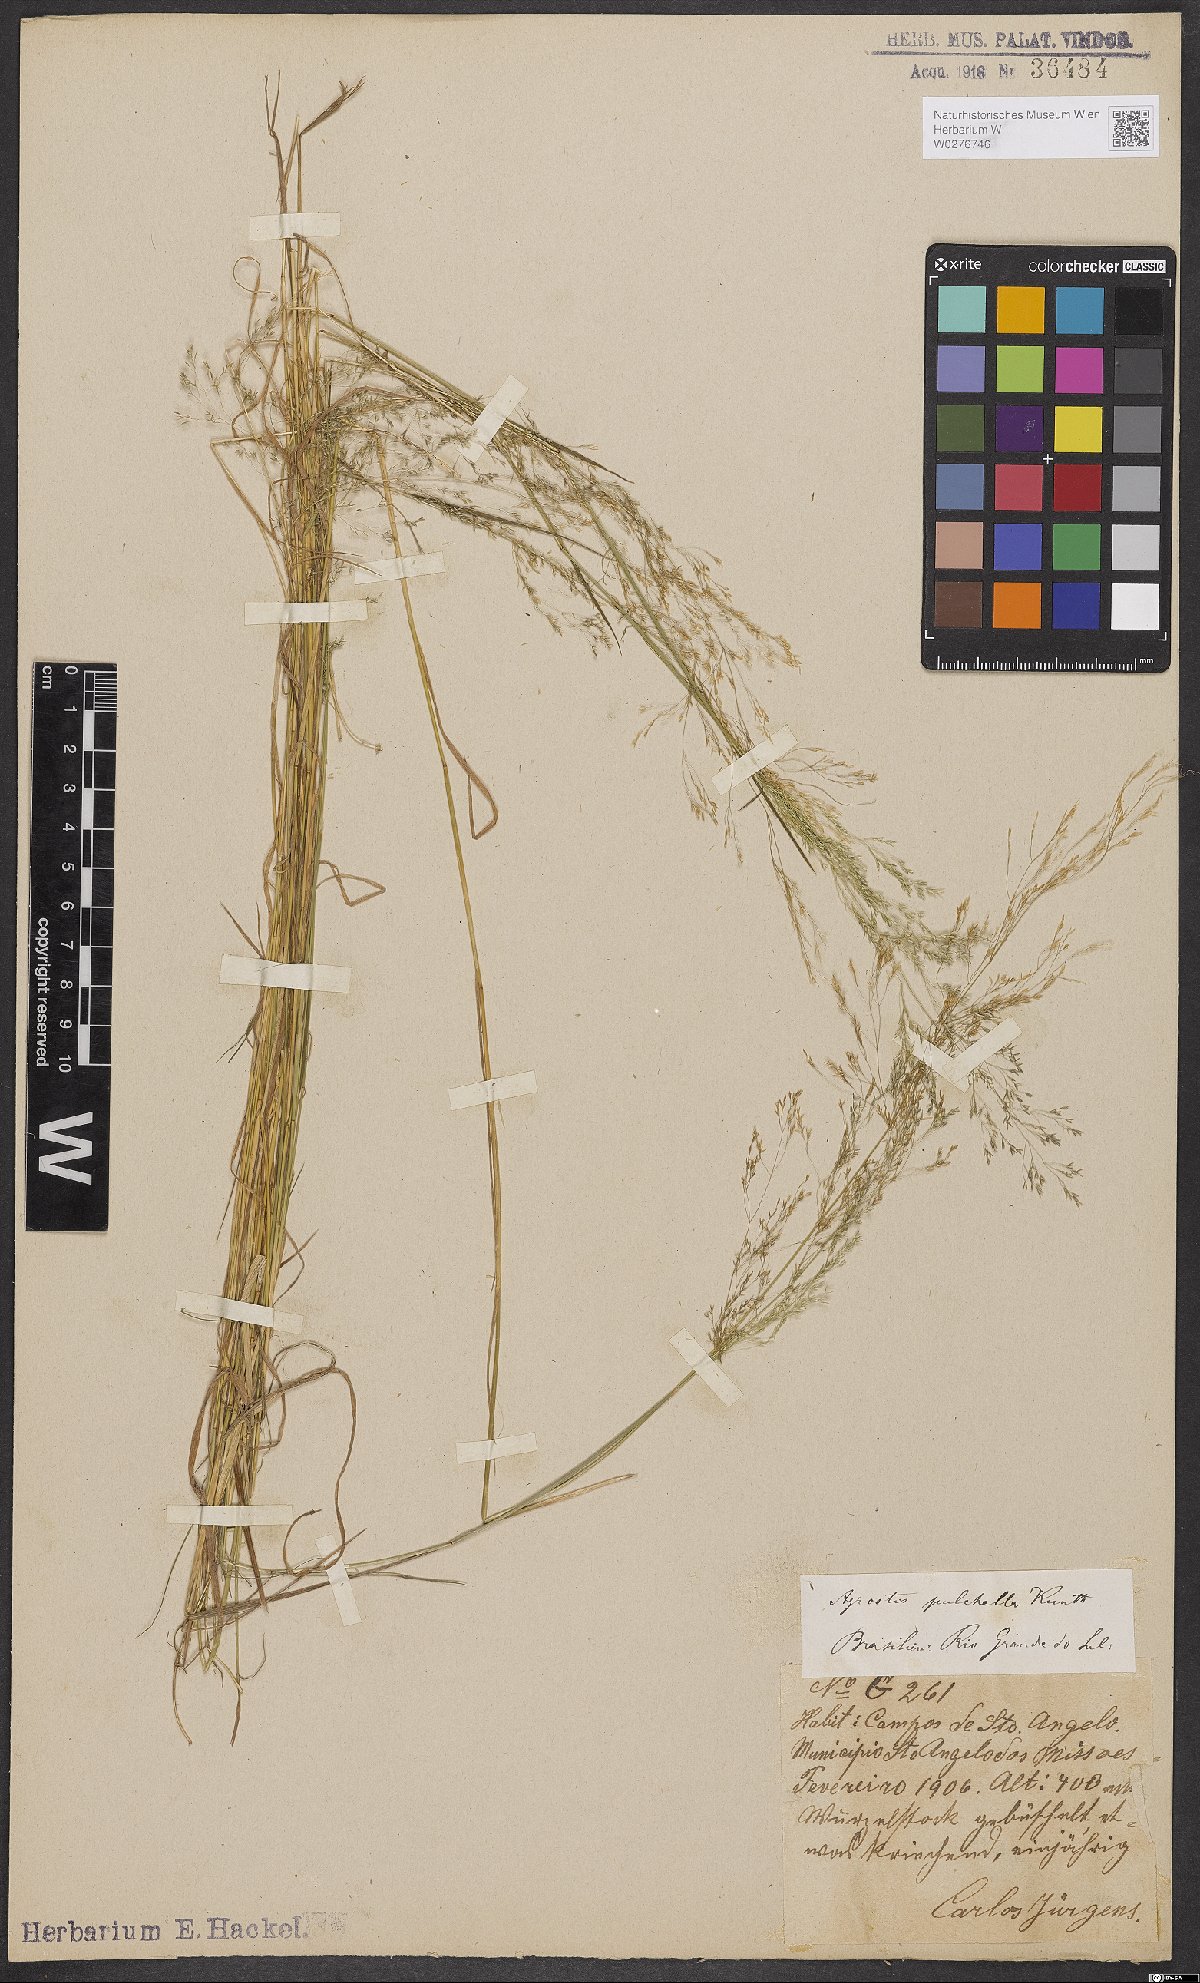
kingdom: Plantae
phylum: Tracheophyta
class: Liliopsida
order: Poales
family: Poaceae
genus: Agrostis
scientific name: Agrostis perennans
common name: Autumn bent
